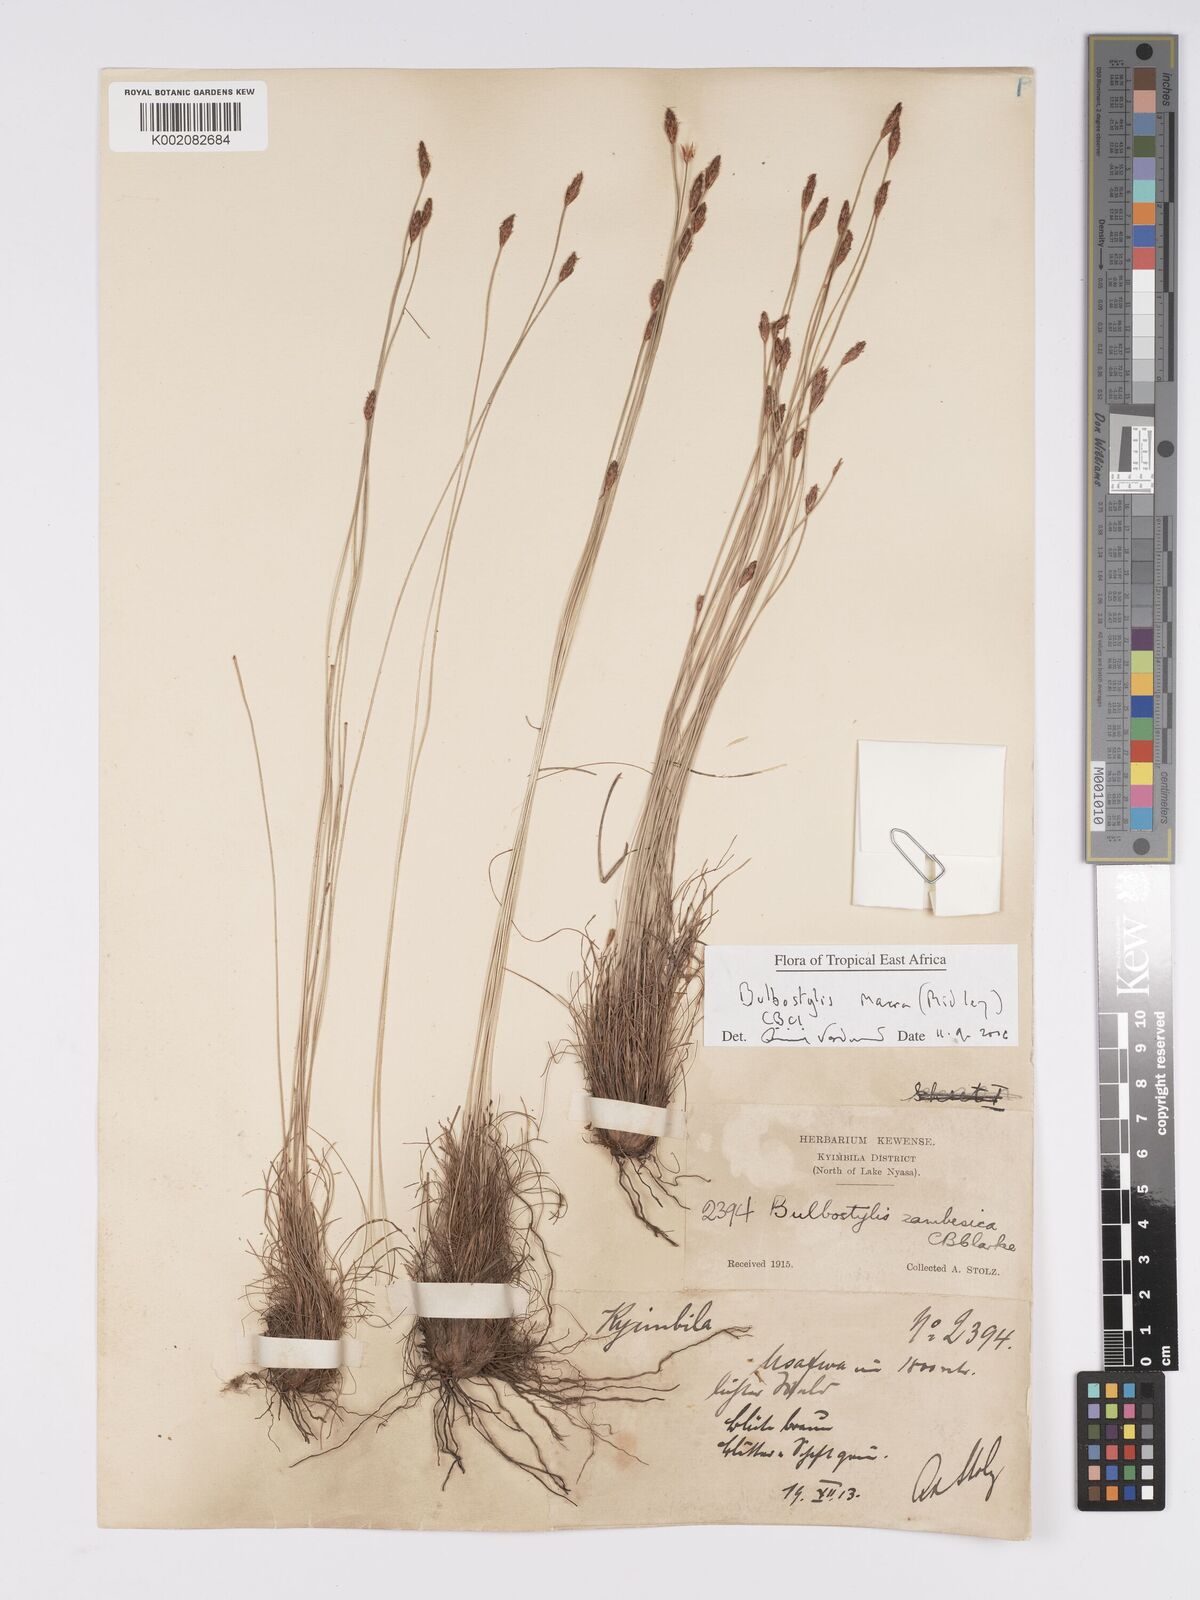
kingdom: Plantae
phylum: Tracheophyta
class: Liliopsida
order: Poales
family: Cyperaceae
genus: Bulbostylis
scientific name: Bulbostylis macra
